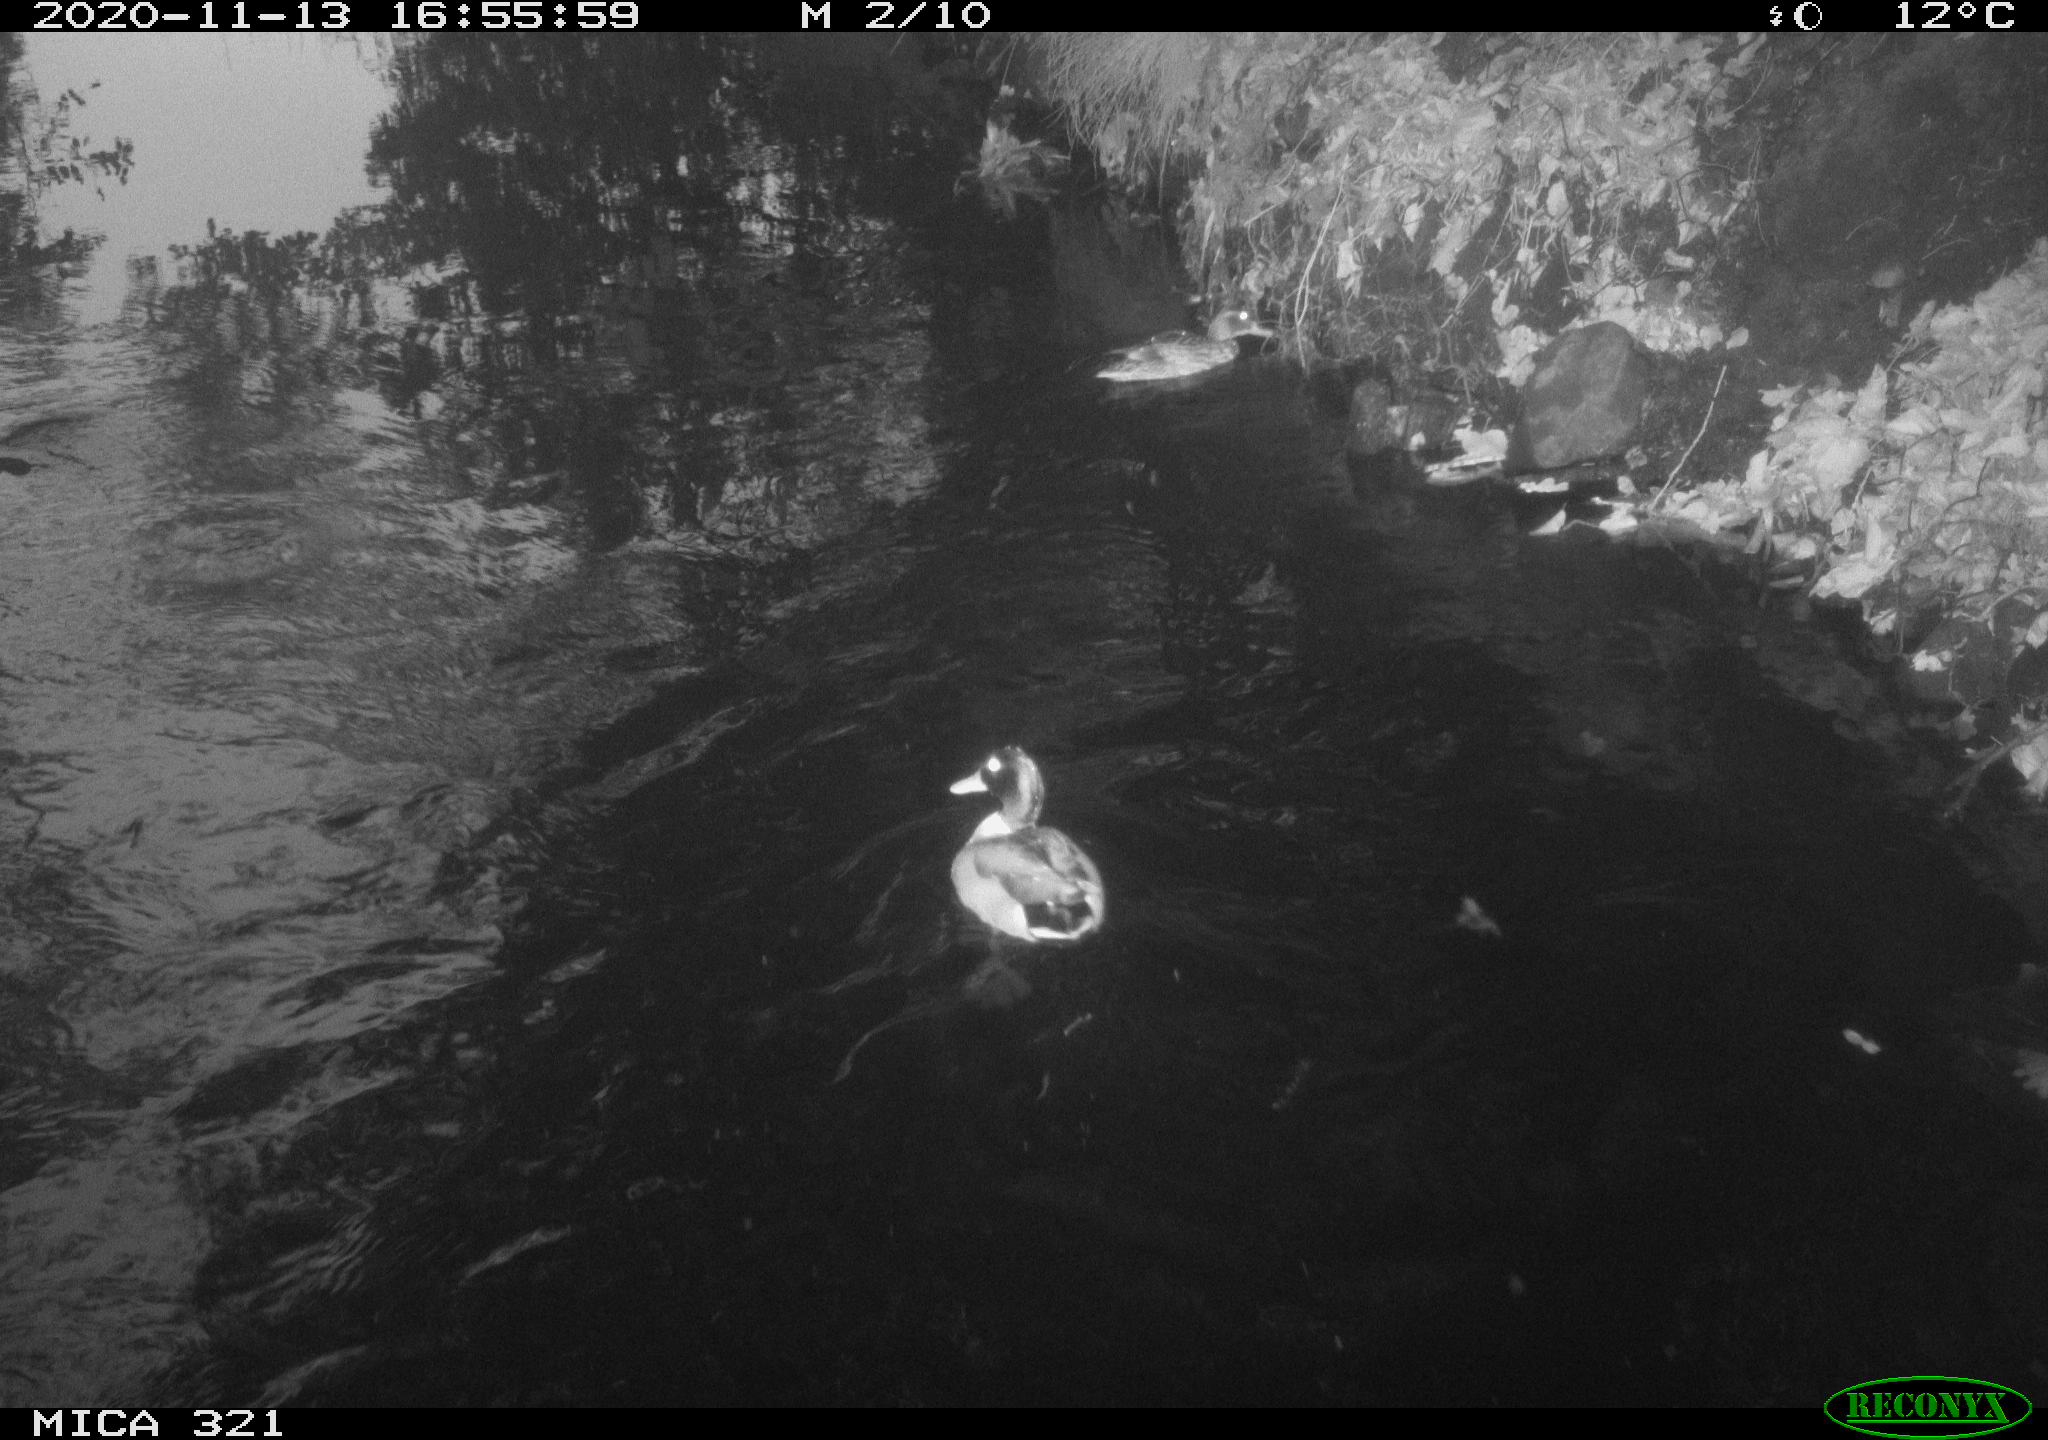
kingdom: Animalia
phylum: Chordata
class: Aves
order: Anseriformes
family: Anatidae
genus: Anas
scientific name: Anas platyrhynchos
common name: Mallard
